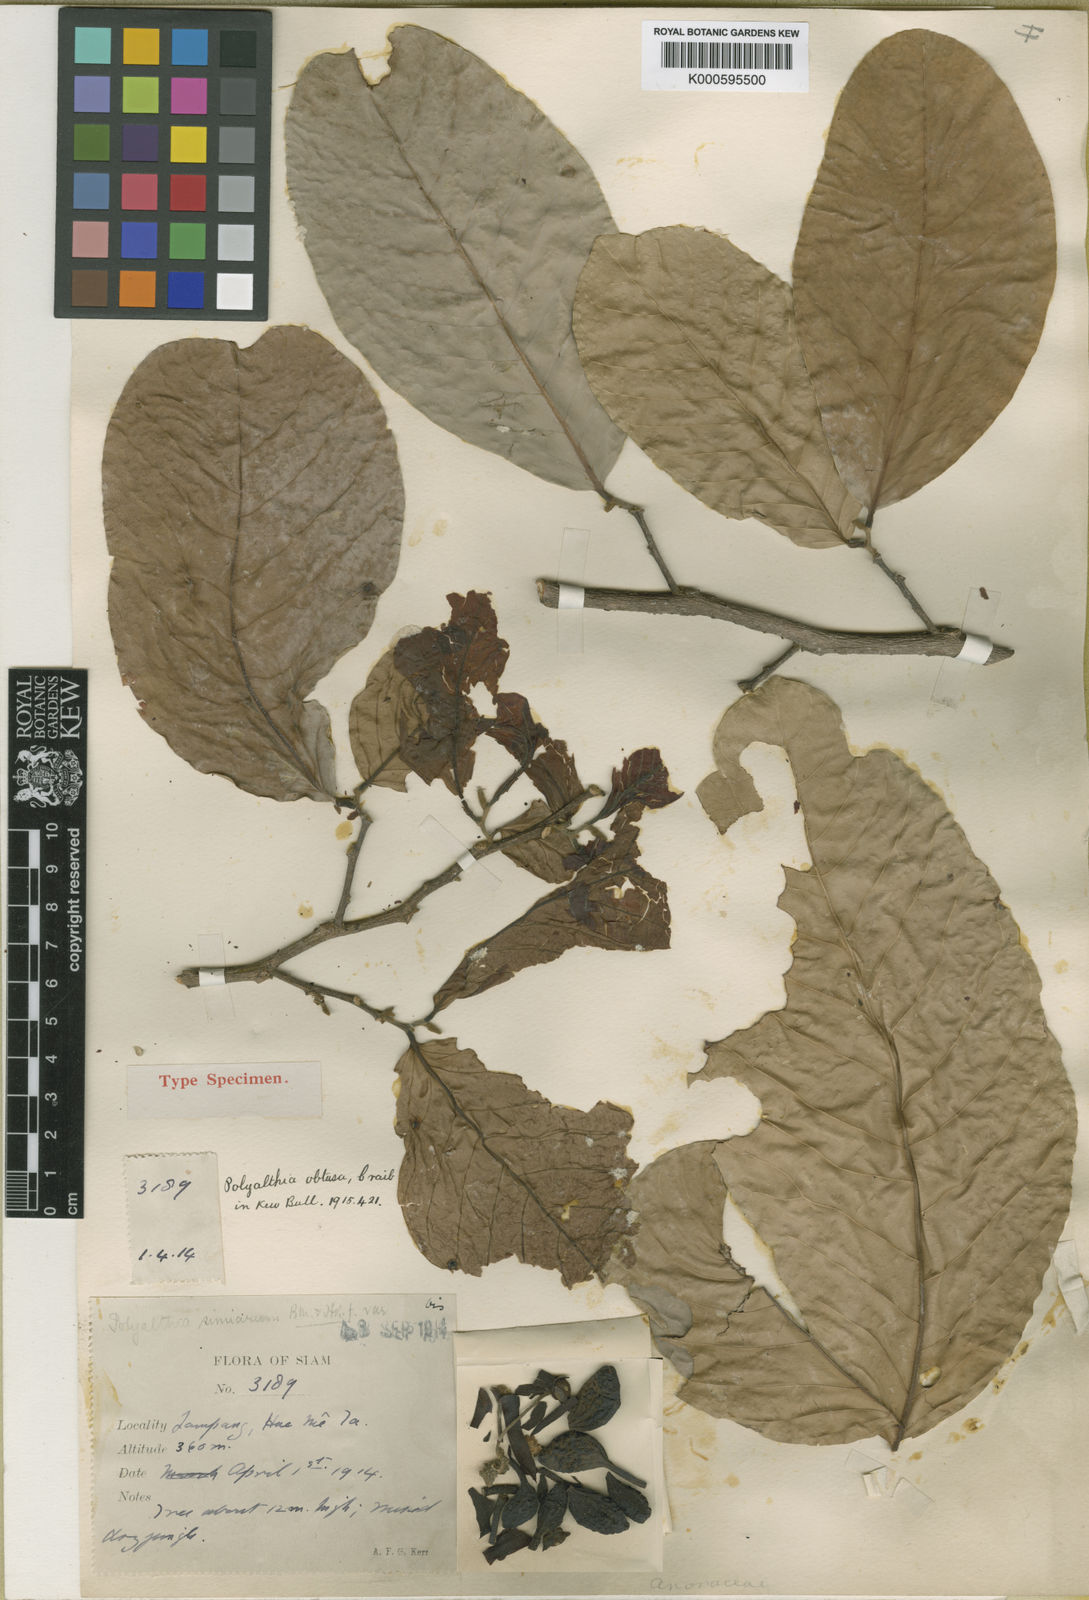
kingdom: Plantae
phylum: Tracheophyta
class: Magnoliopsida
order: Magnoliales
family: Annonaceae
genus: Polyalthia
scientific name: Polyalthia obtusa
